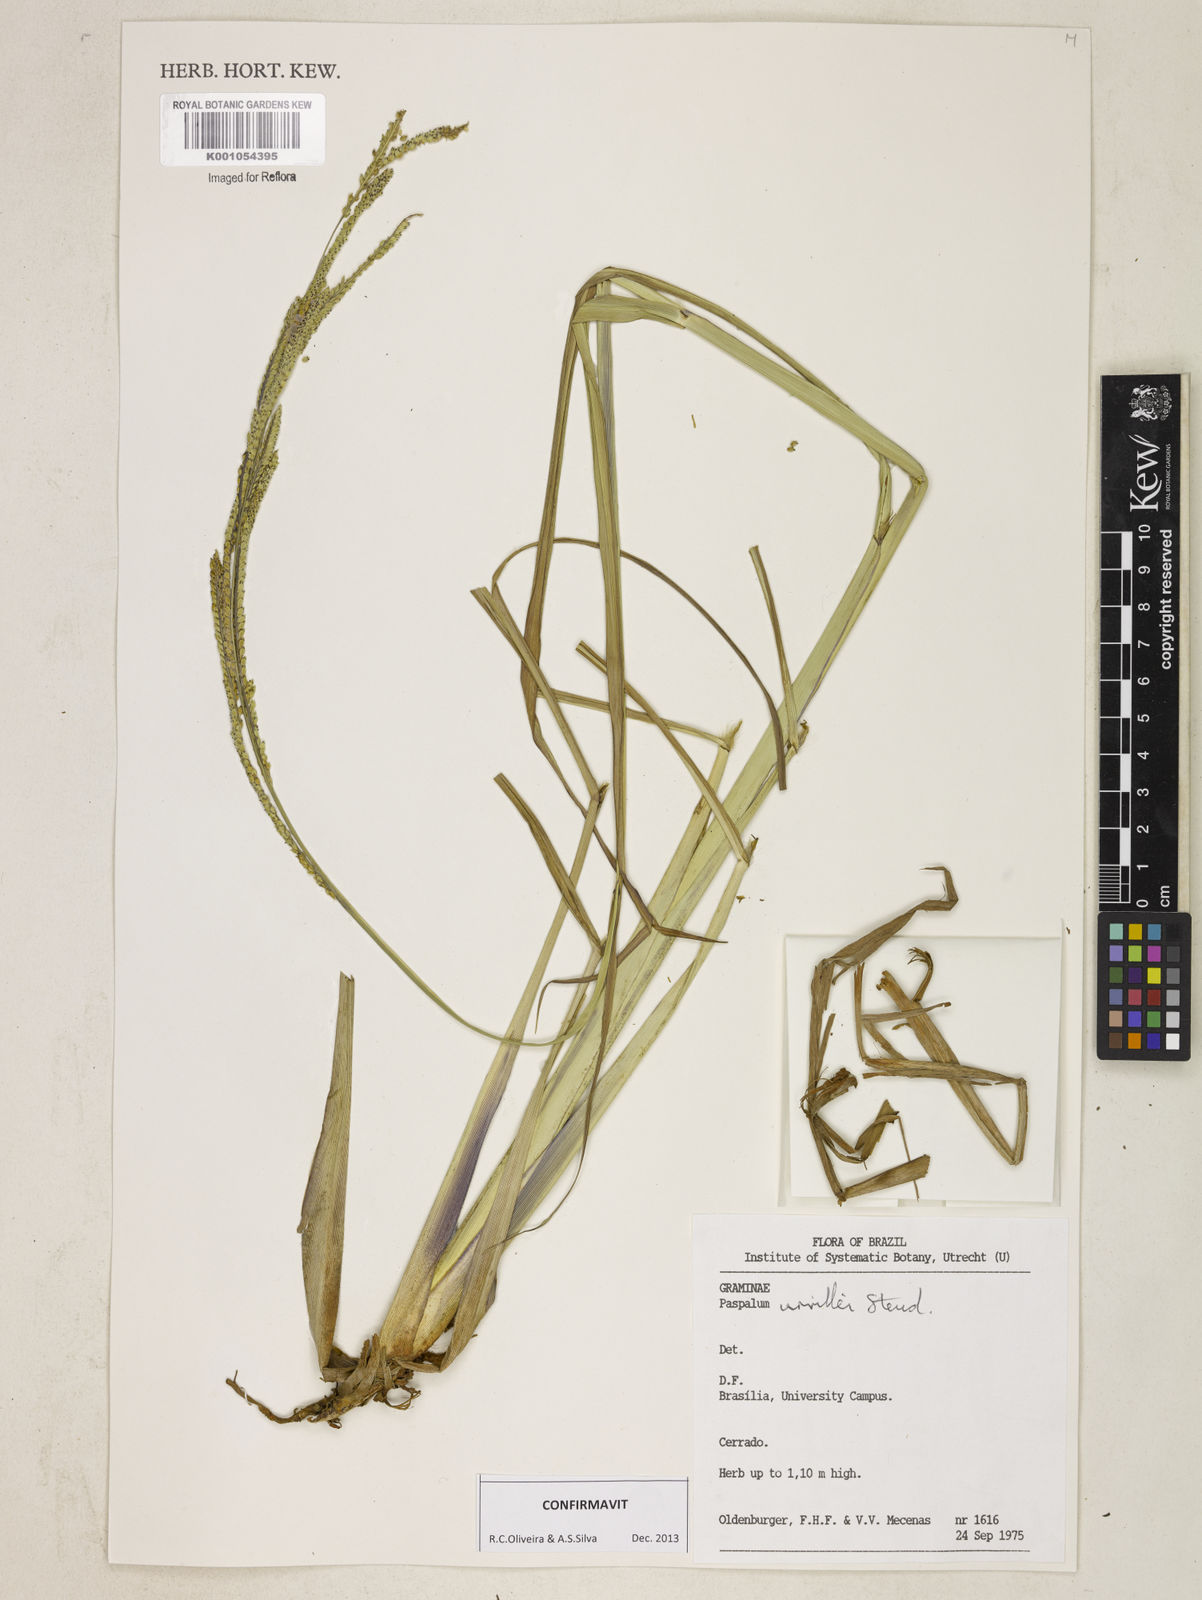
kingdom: Plantae
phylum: Tracheophyta
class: Liliopsida
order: Poales
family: Poaceae
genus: Paspalum
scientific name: Paspalum urvillei
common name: Vasey's grass
